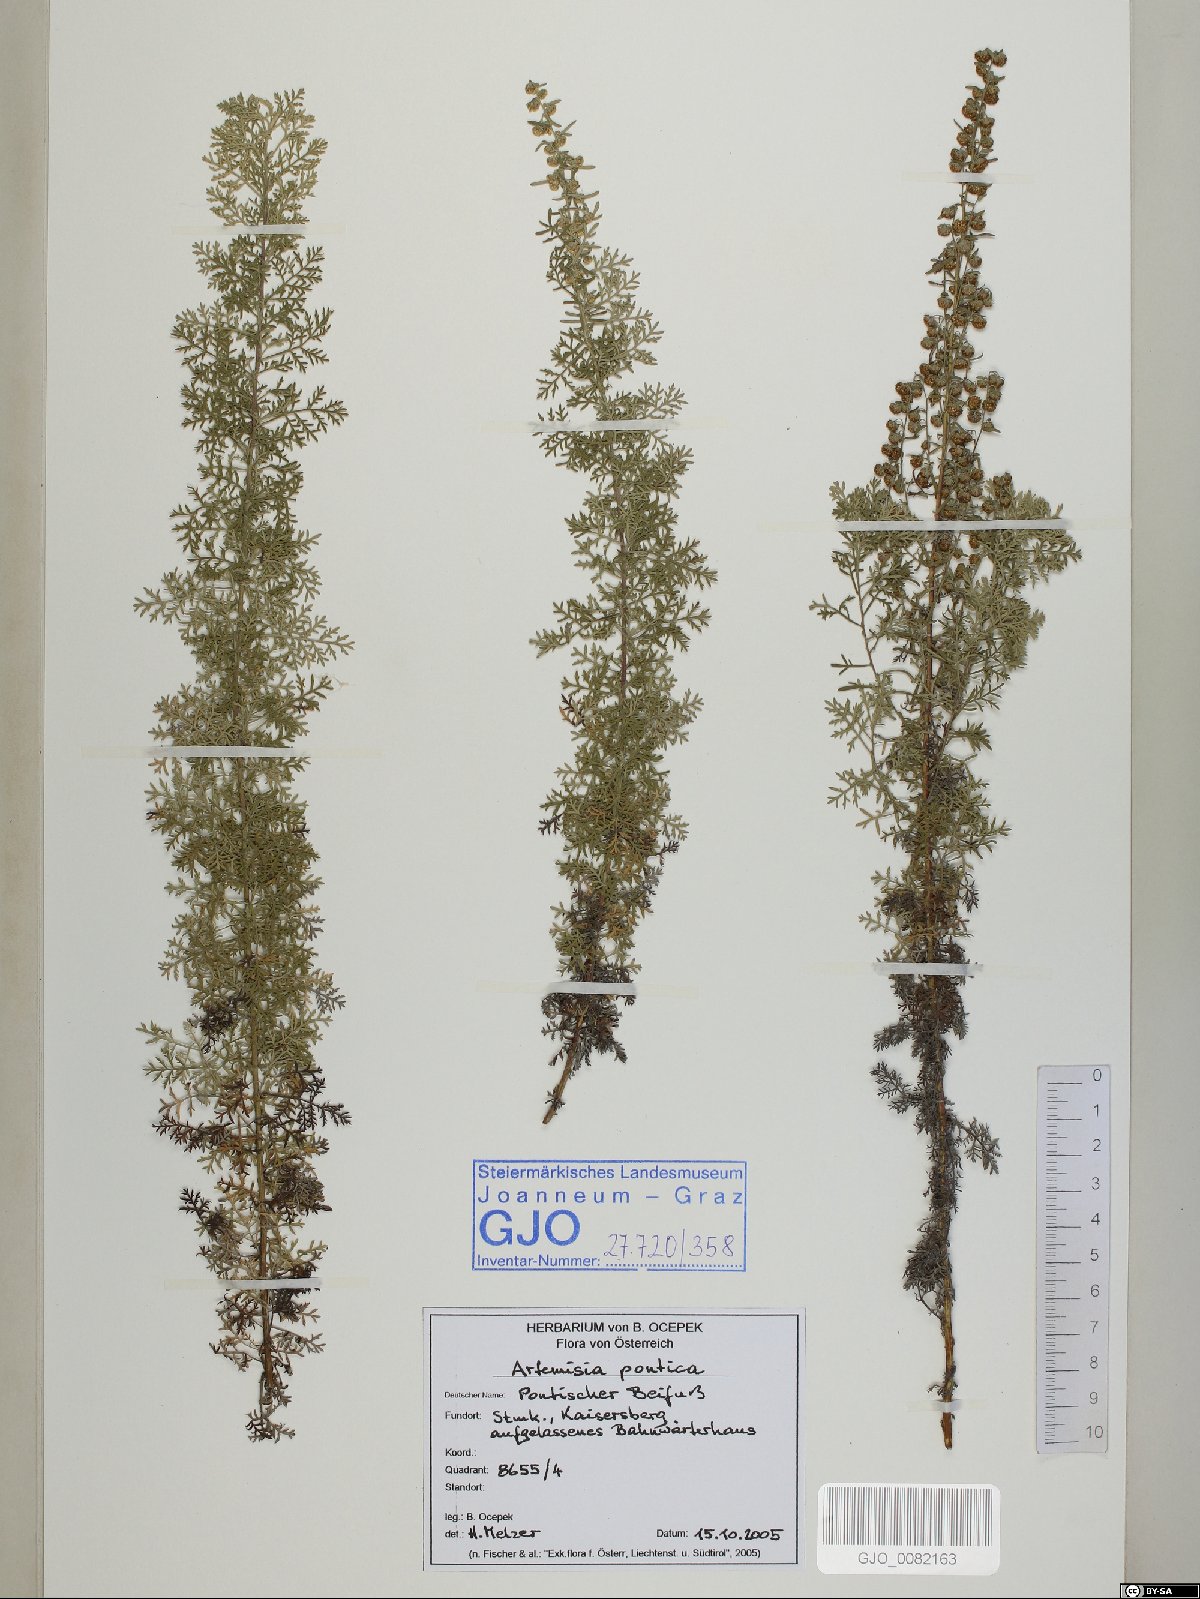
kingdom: Plantae
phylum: Tracheophyta
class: Magnoliopsida
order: Asterales
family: Asteraceae
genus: Artemisia
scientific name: Artemisia pontica
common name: Roman wormwood
